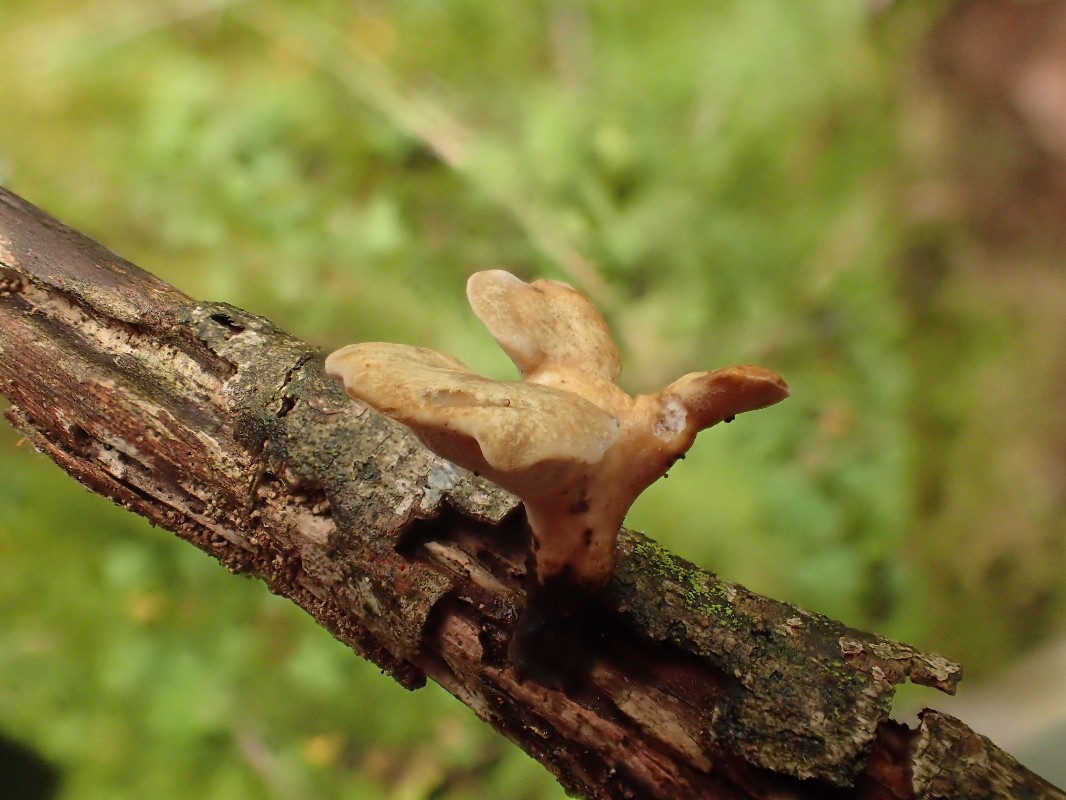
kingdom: Fungi
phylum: Basidiomycota
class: Agaricomycetes
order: Polyporales
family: Polyporaceae
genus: Cerioporus
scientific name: Cerioporus varius
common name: foranderlig stilkporesvamp
